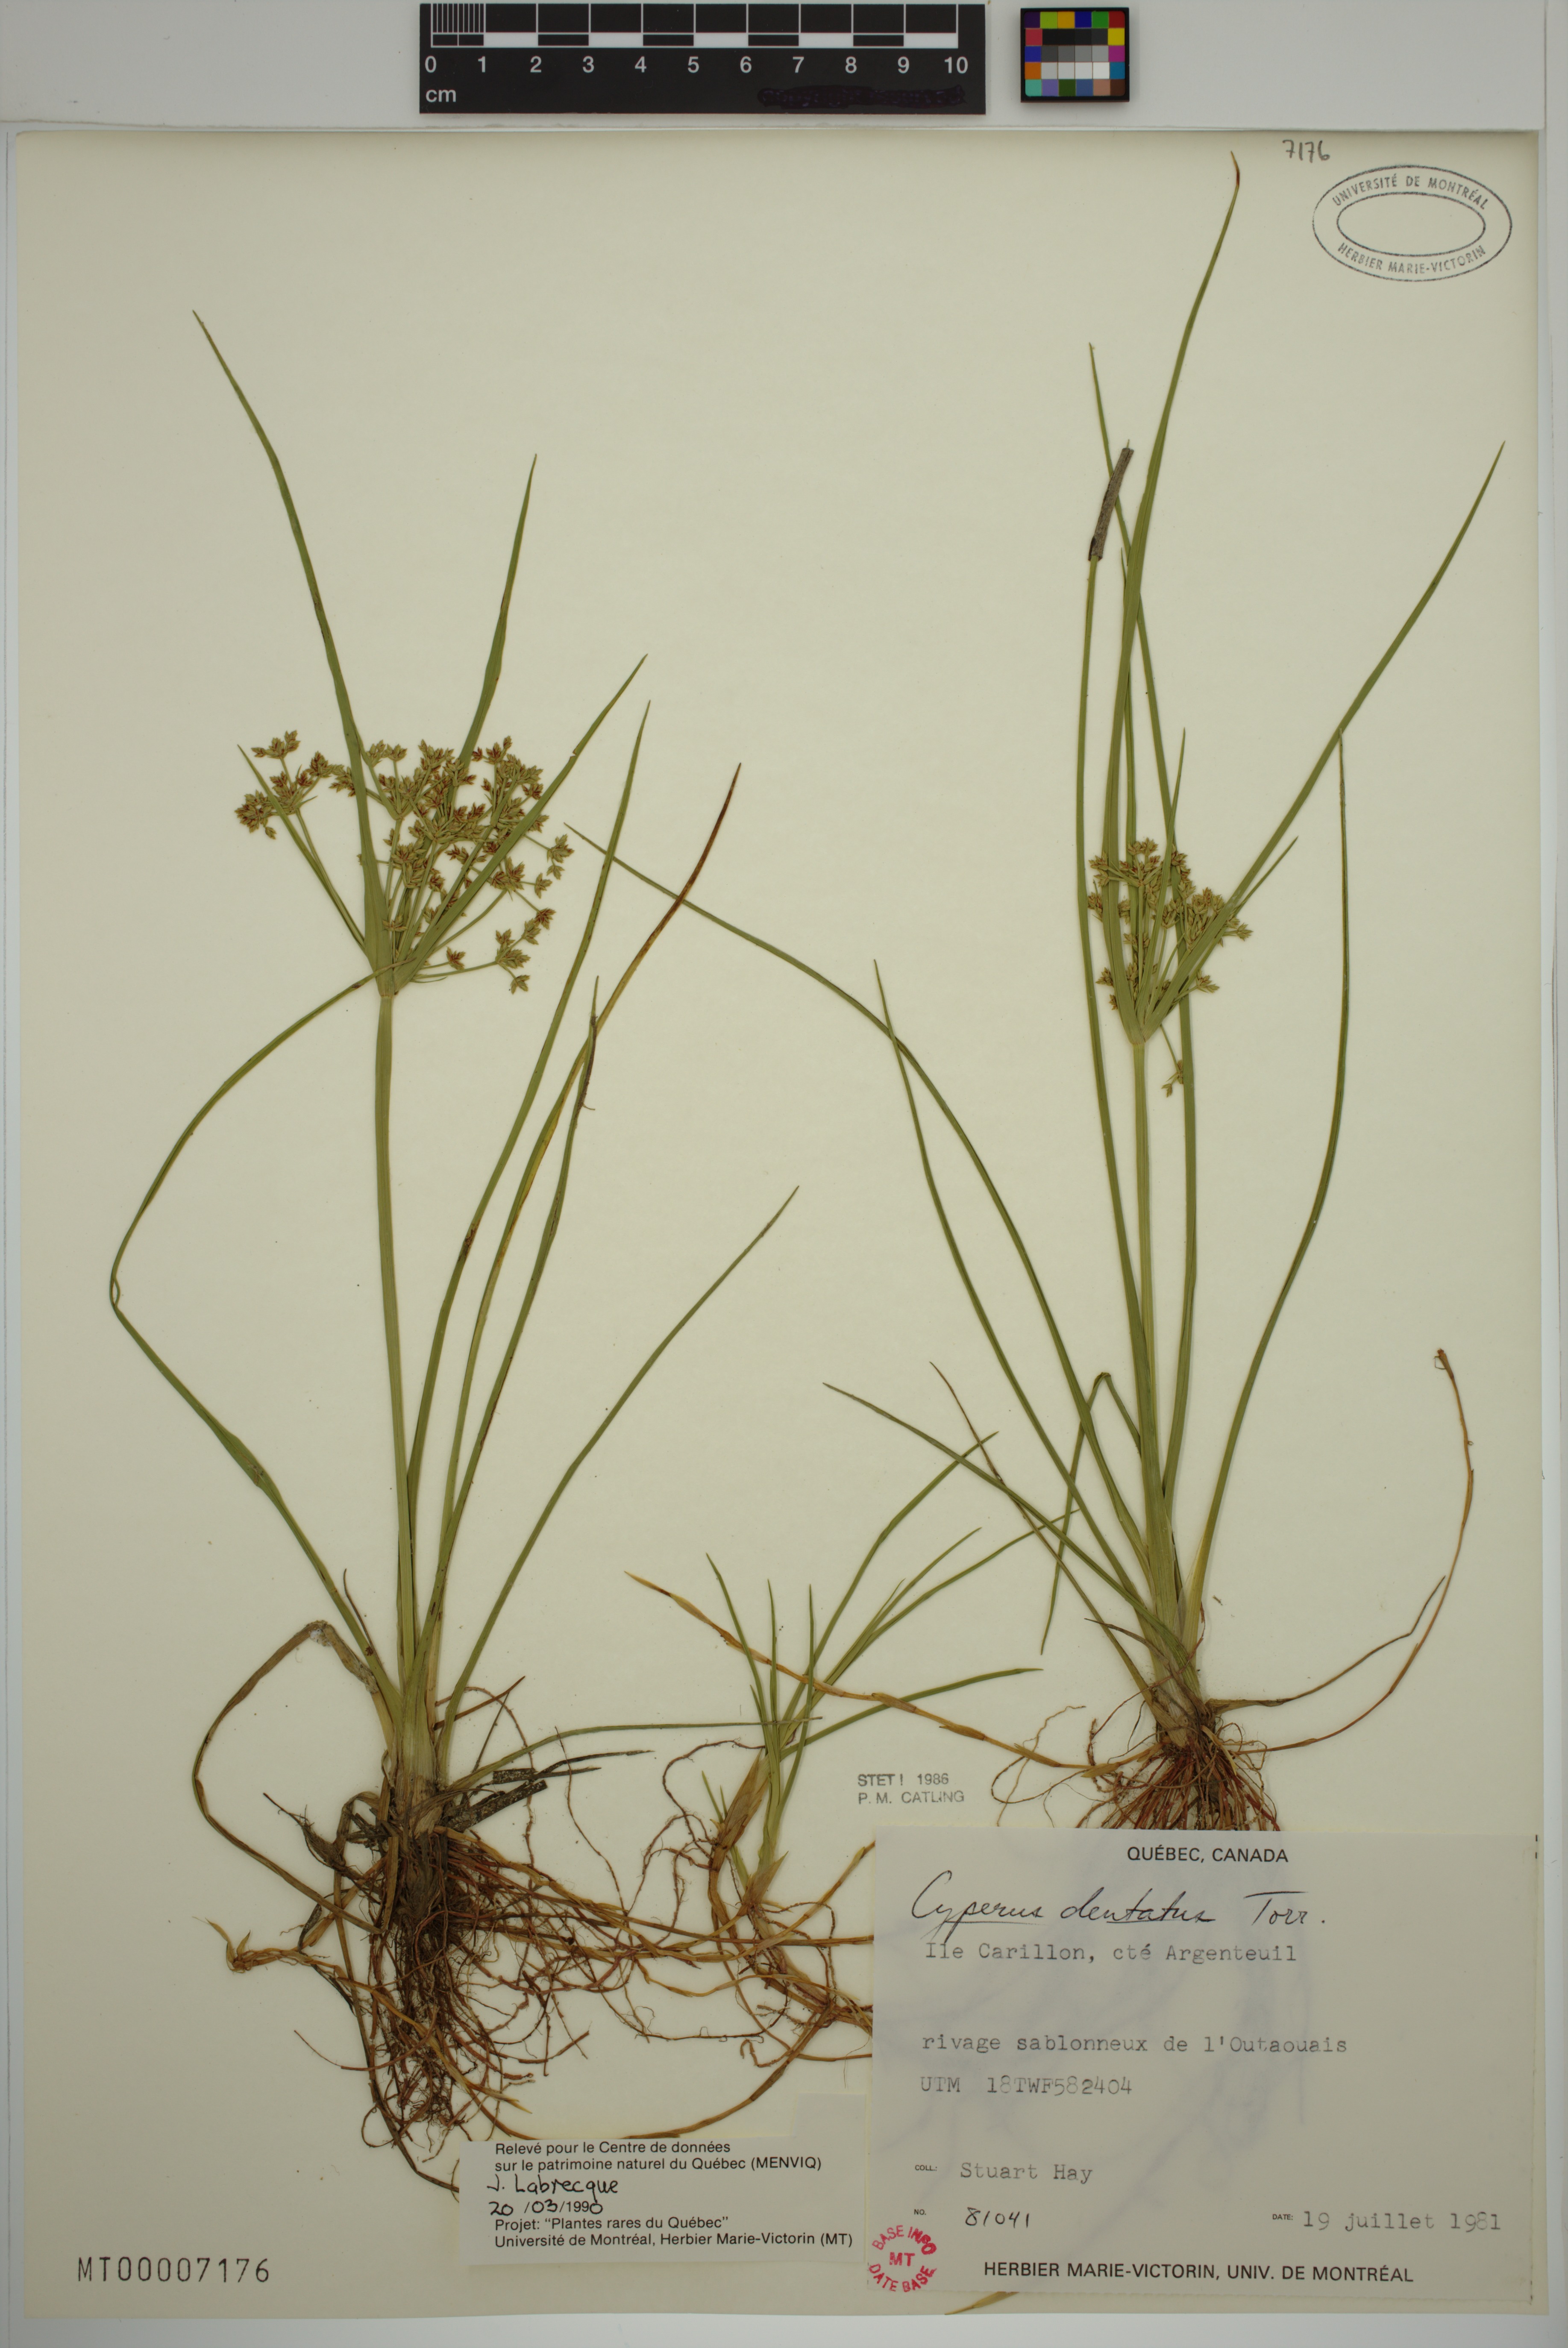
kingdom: Plantae
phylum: Tracheophyta
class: Liliopsida
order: Poales
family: Cyperaceae
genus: Cyperus
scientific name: Cyperus dentatus
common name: Dentate umbrella sedge
